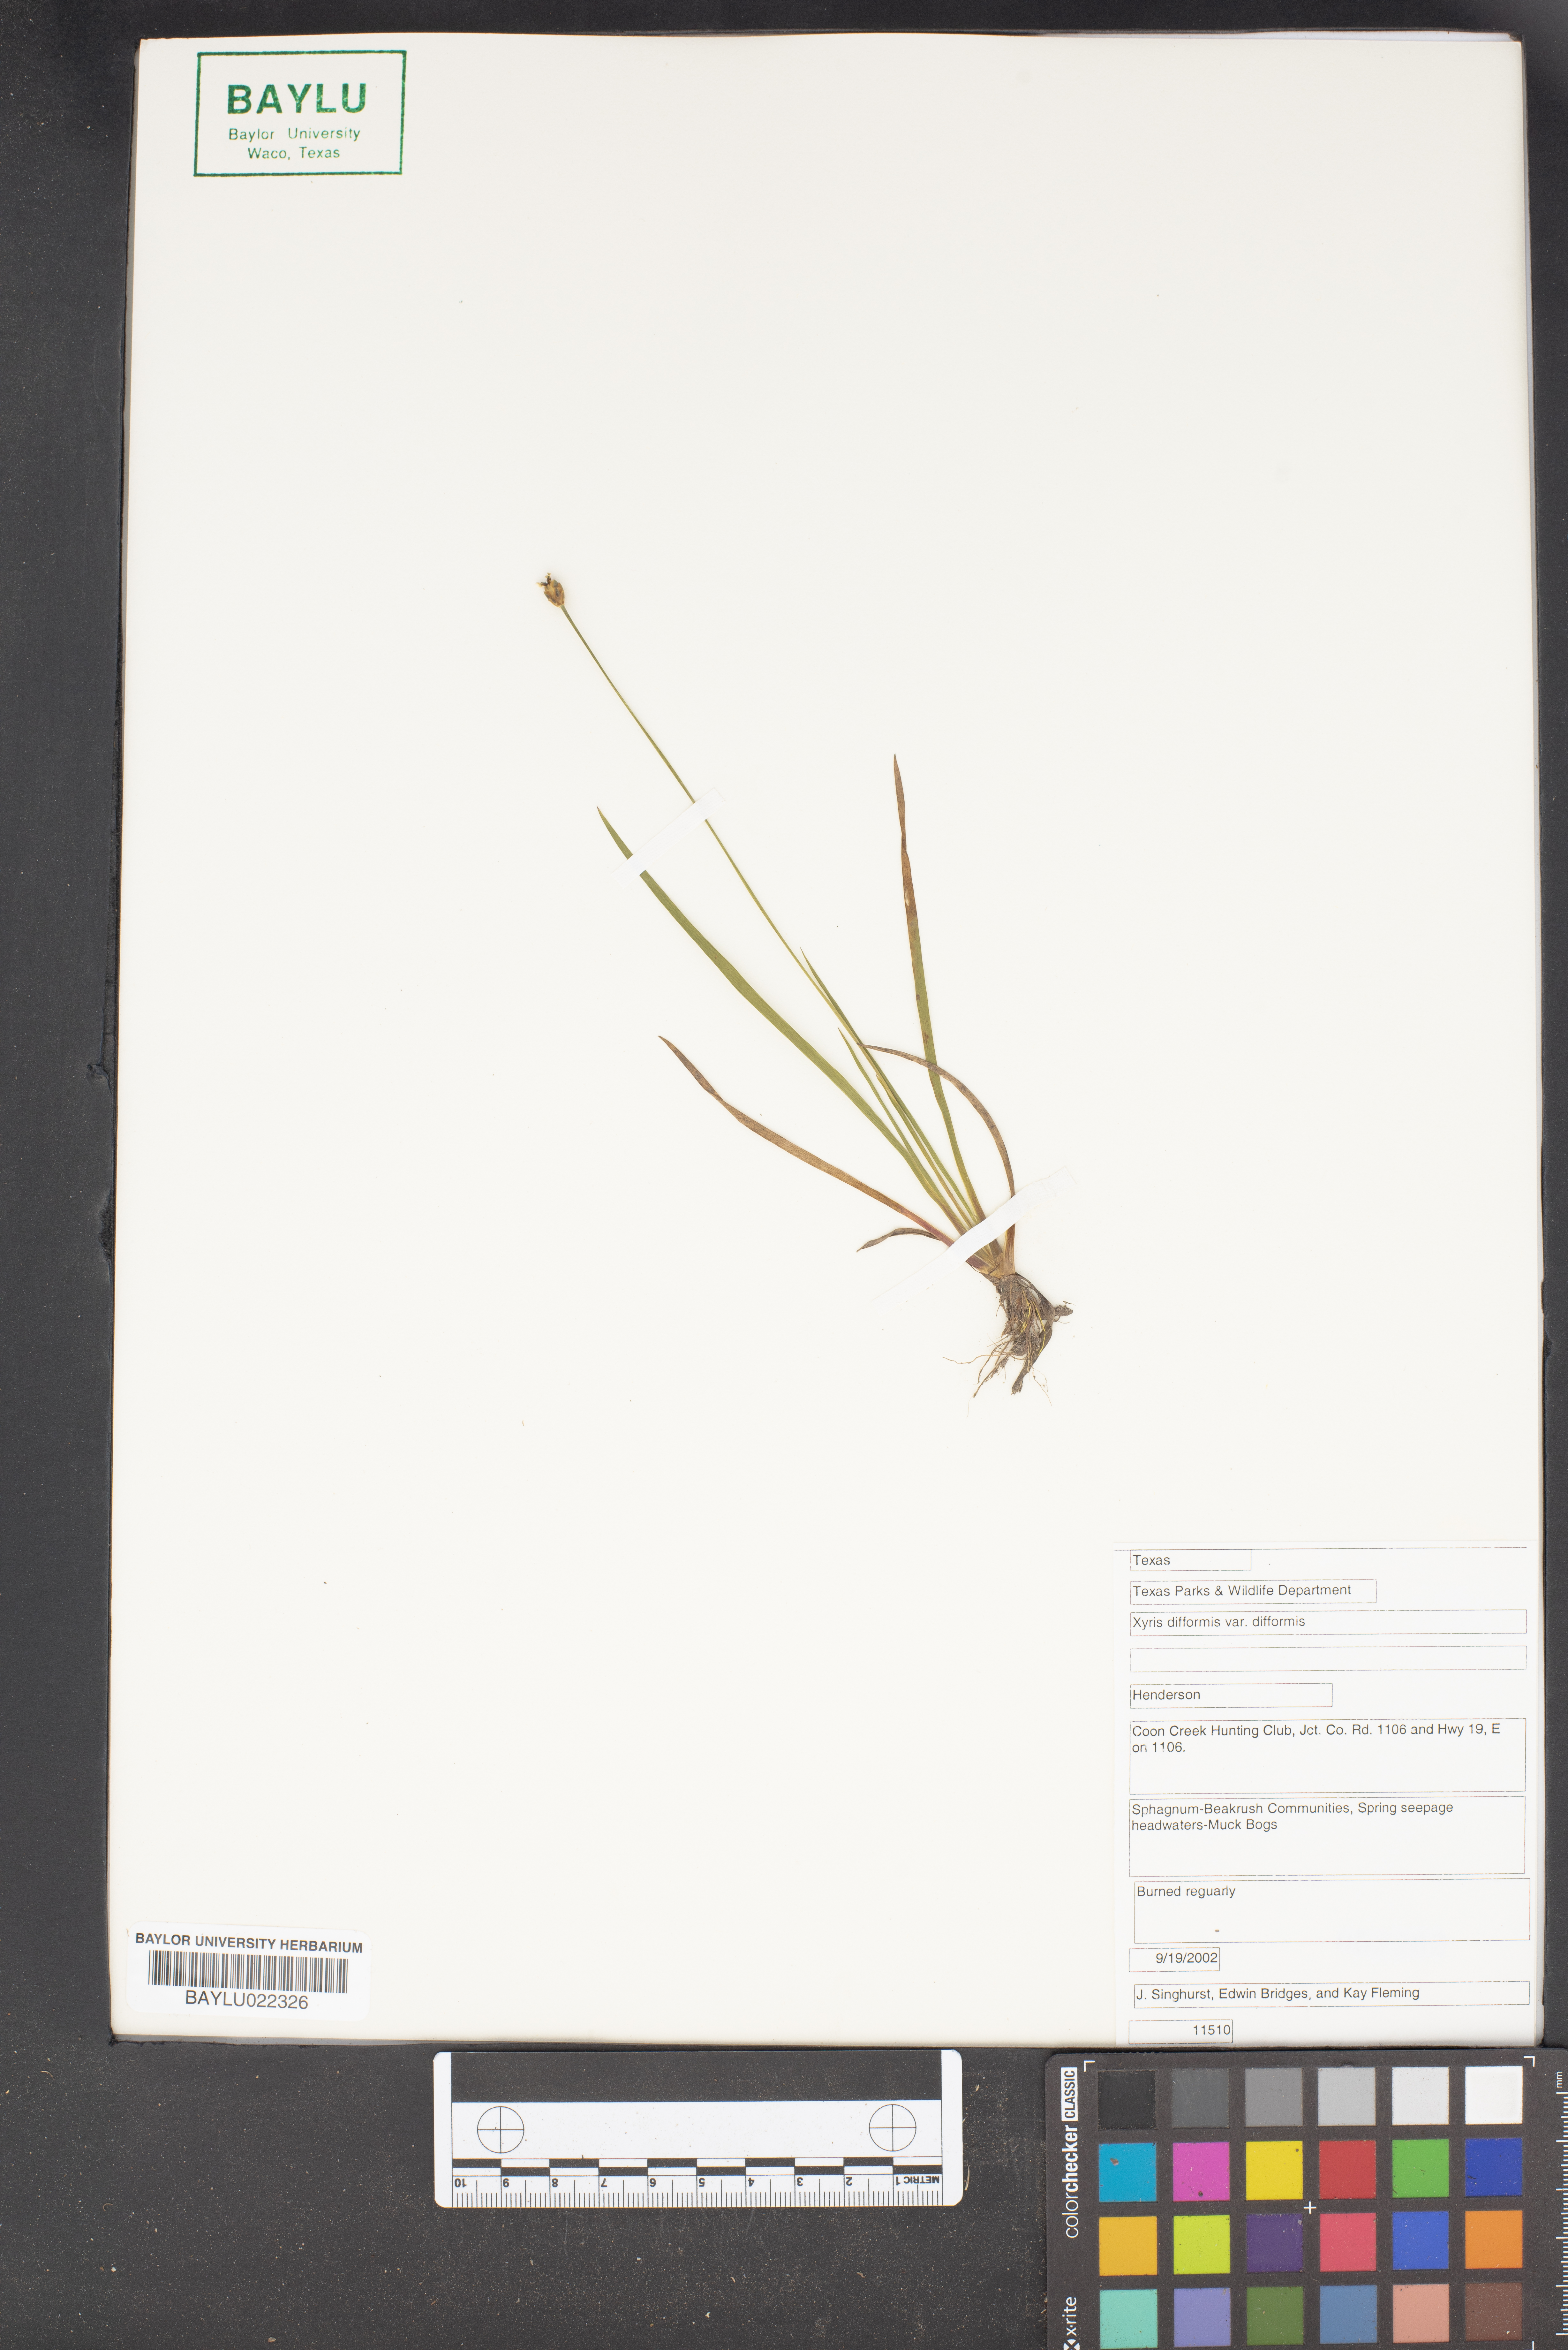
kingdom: Plantae
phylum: Tracheophyta
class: Liliopsida
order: Poales
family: Xyridaceae
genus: Xyris
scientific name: Xyris difformis
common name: Bog yellow-eyed-grass
